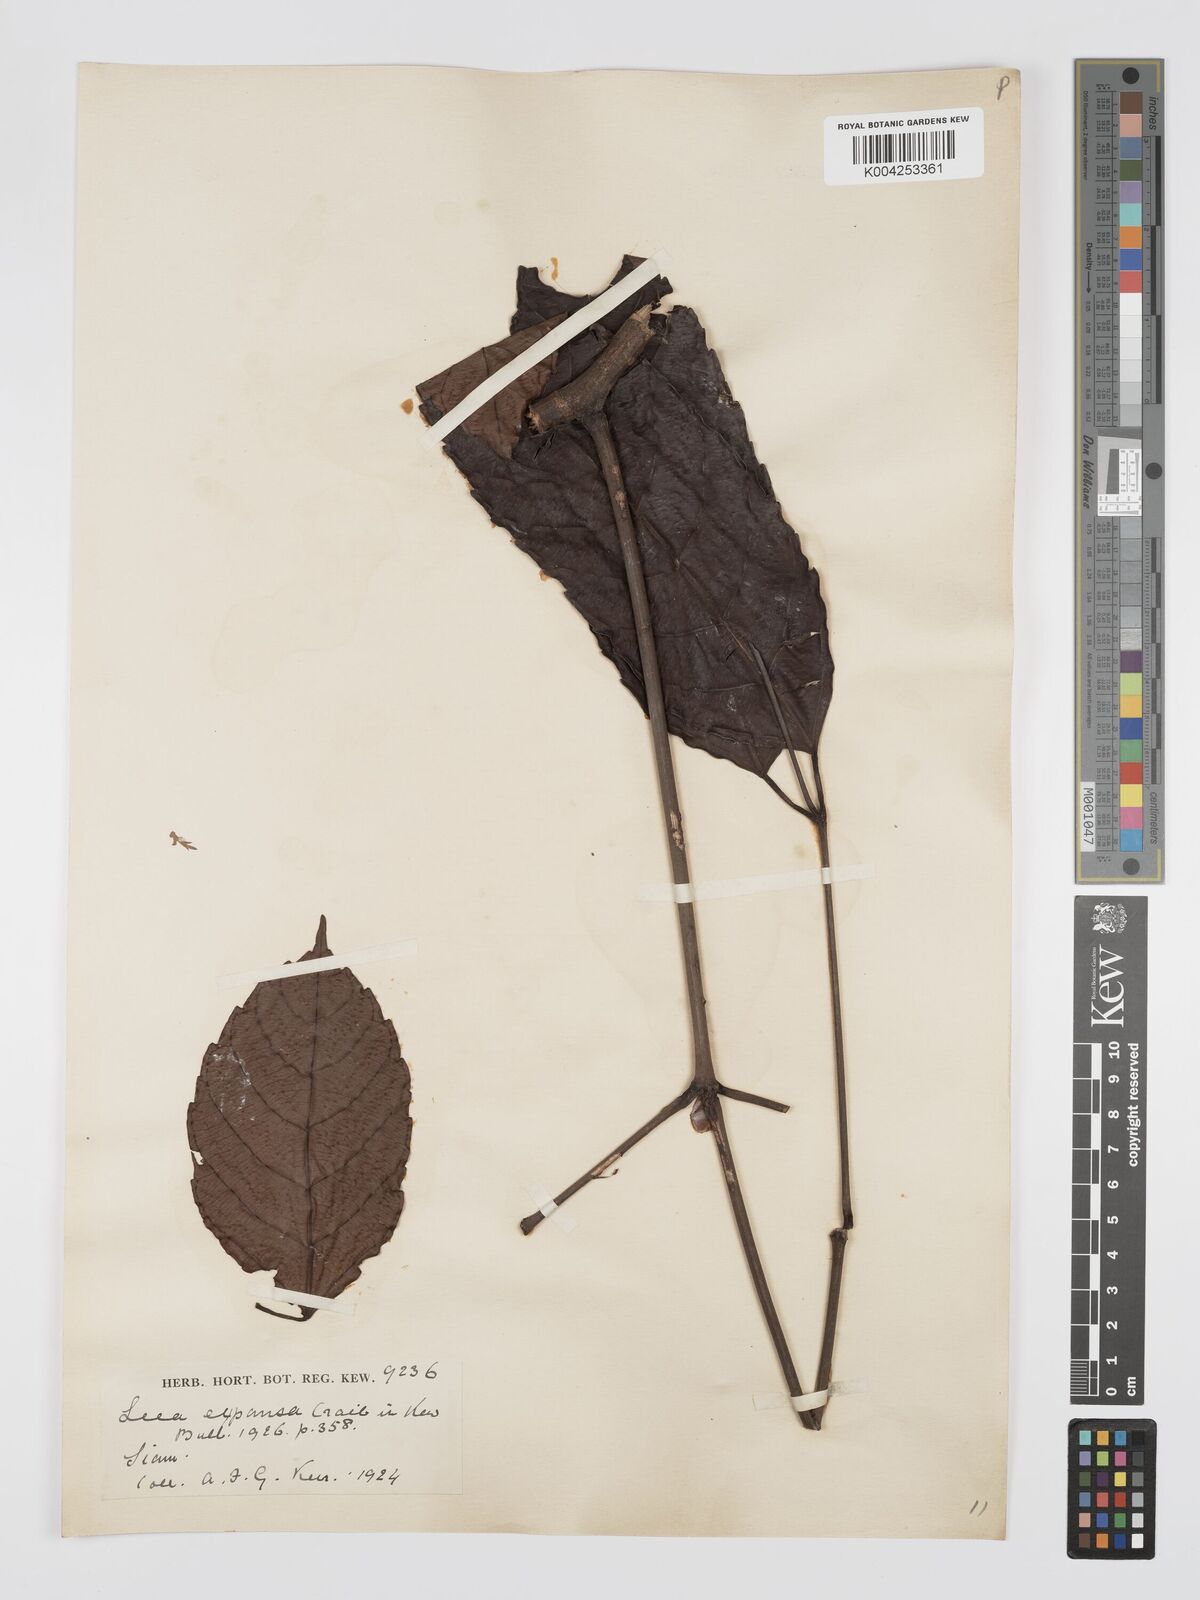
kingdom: Plantae
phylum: Tracheophyta
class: Magnoliopsida
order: Vitales
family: Vitaceae
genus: Leea
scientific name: Leea indica
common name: Bandicoot-berry
